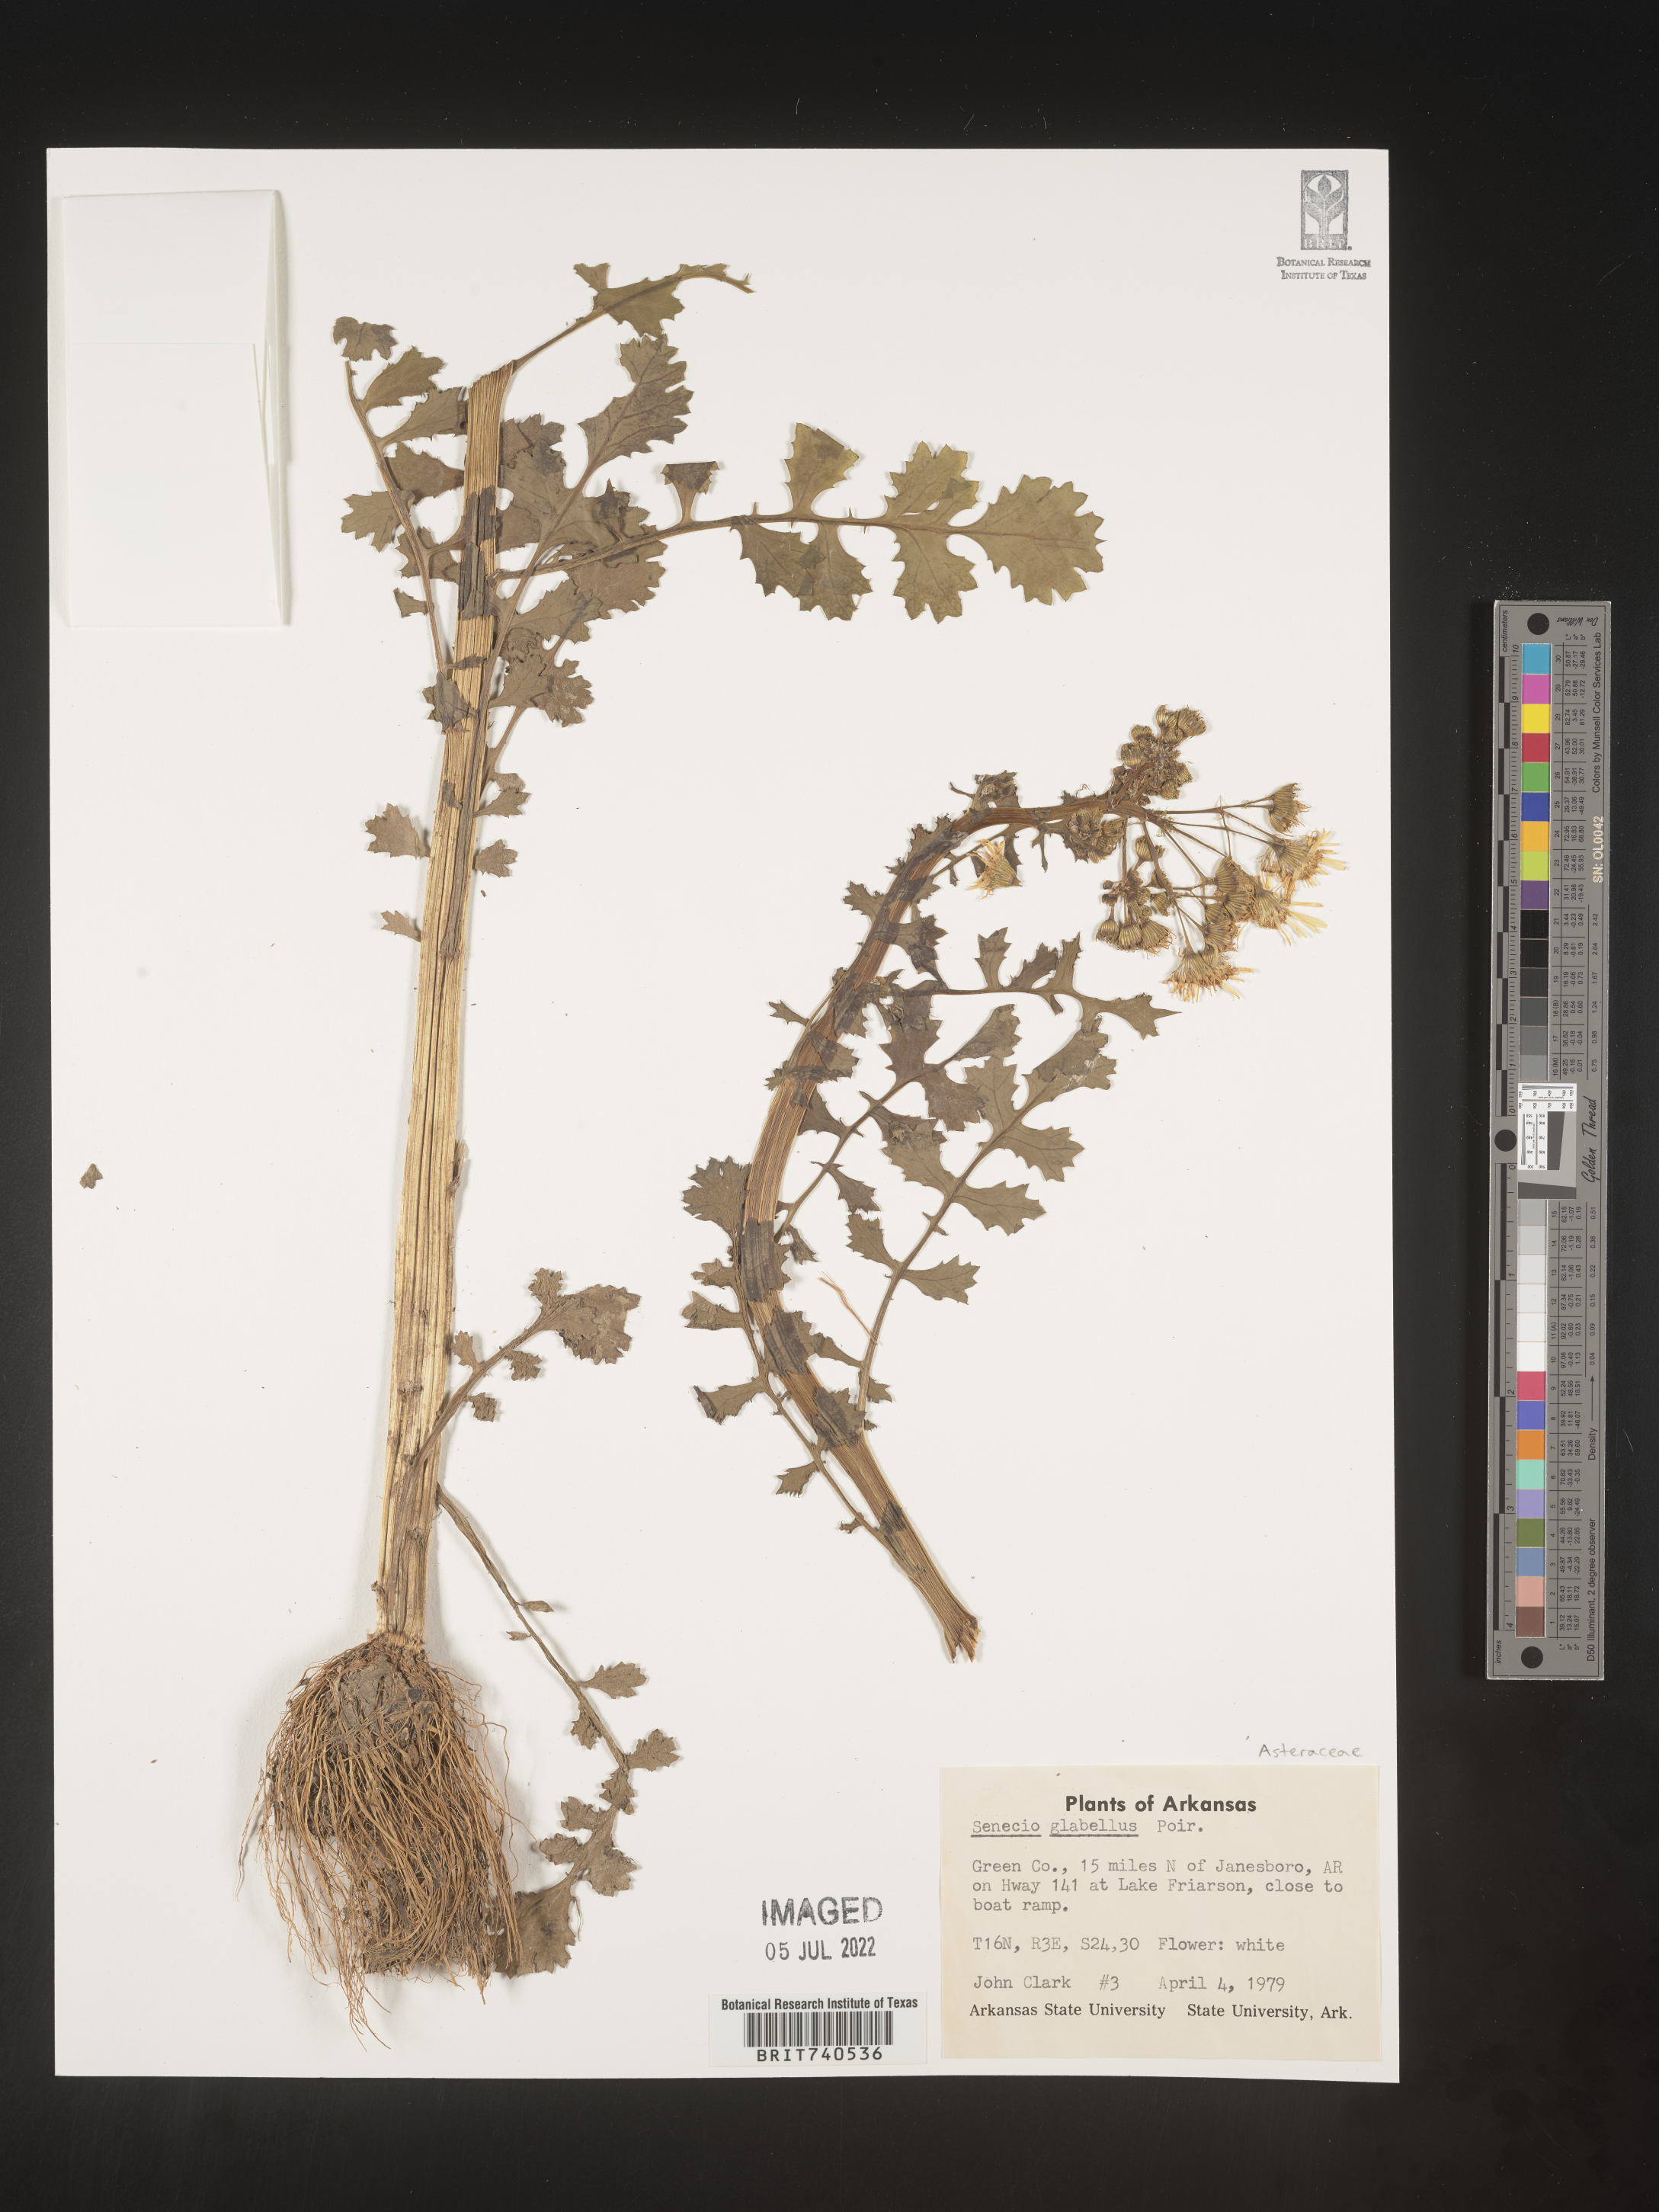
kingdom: Plantae
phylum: Tracheophyta
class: Magnoliopsida
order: Asterales
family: Asteraceae
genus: Tephroseris
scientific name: Tephroseris praticola
